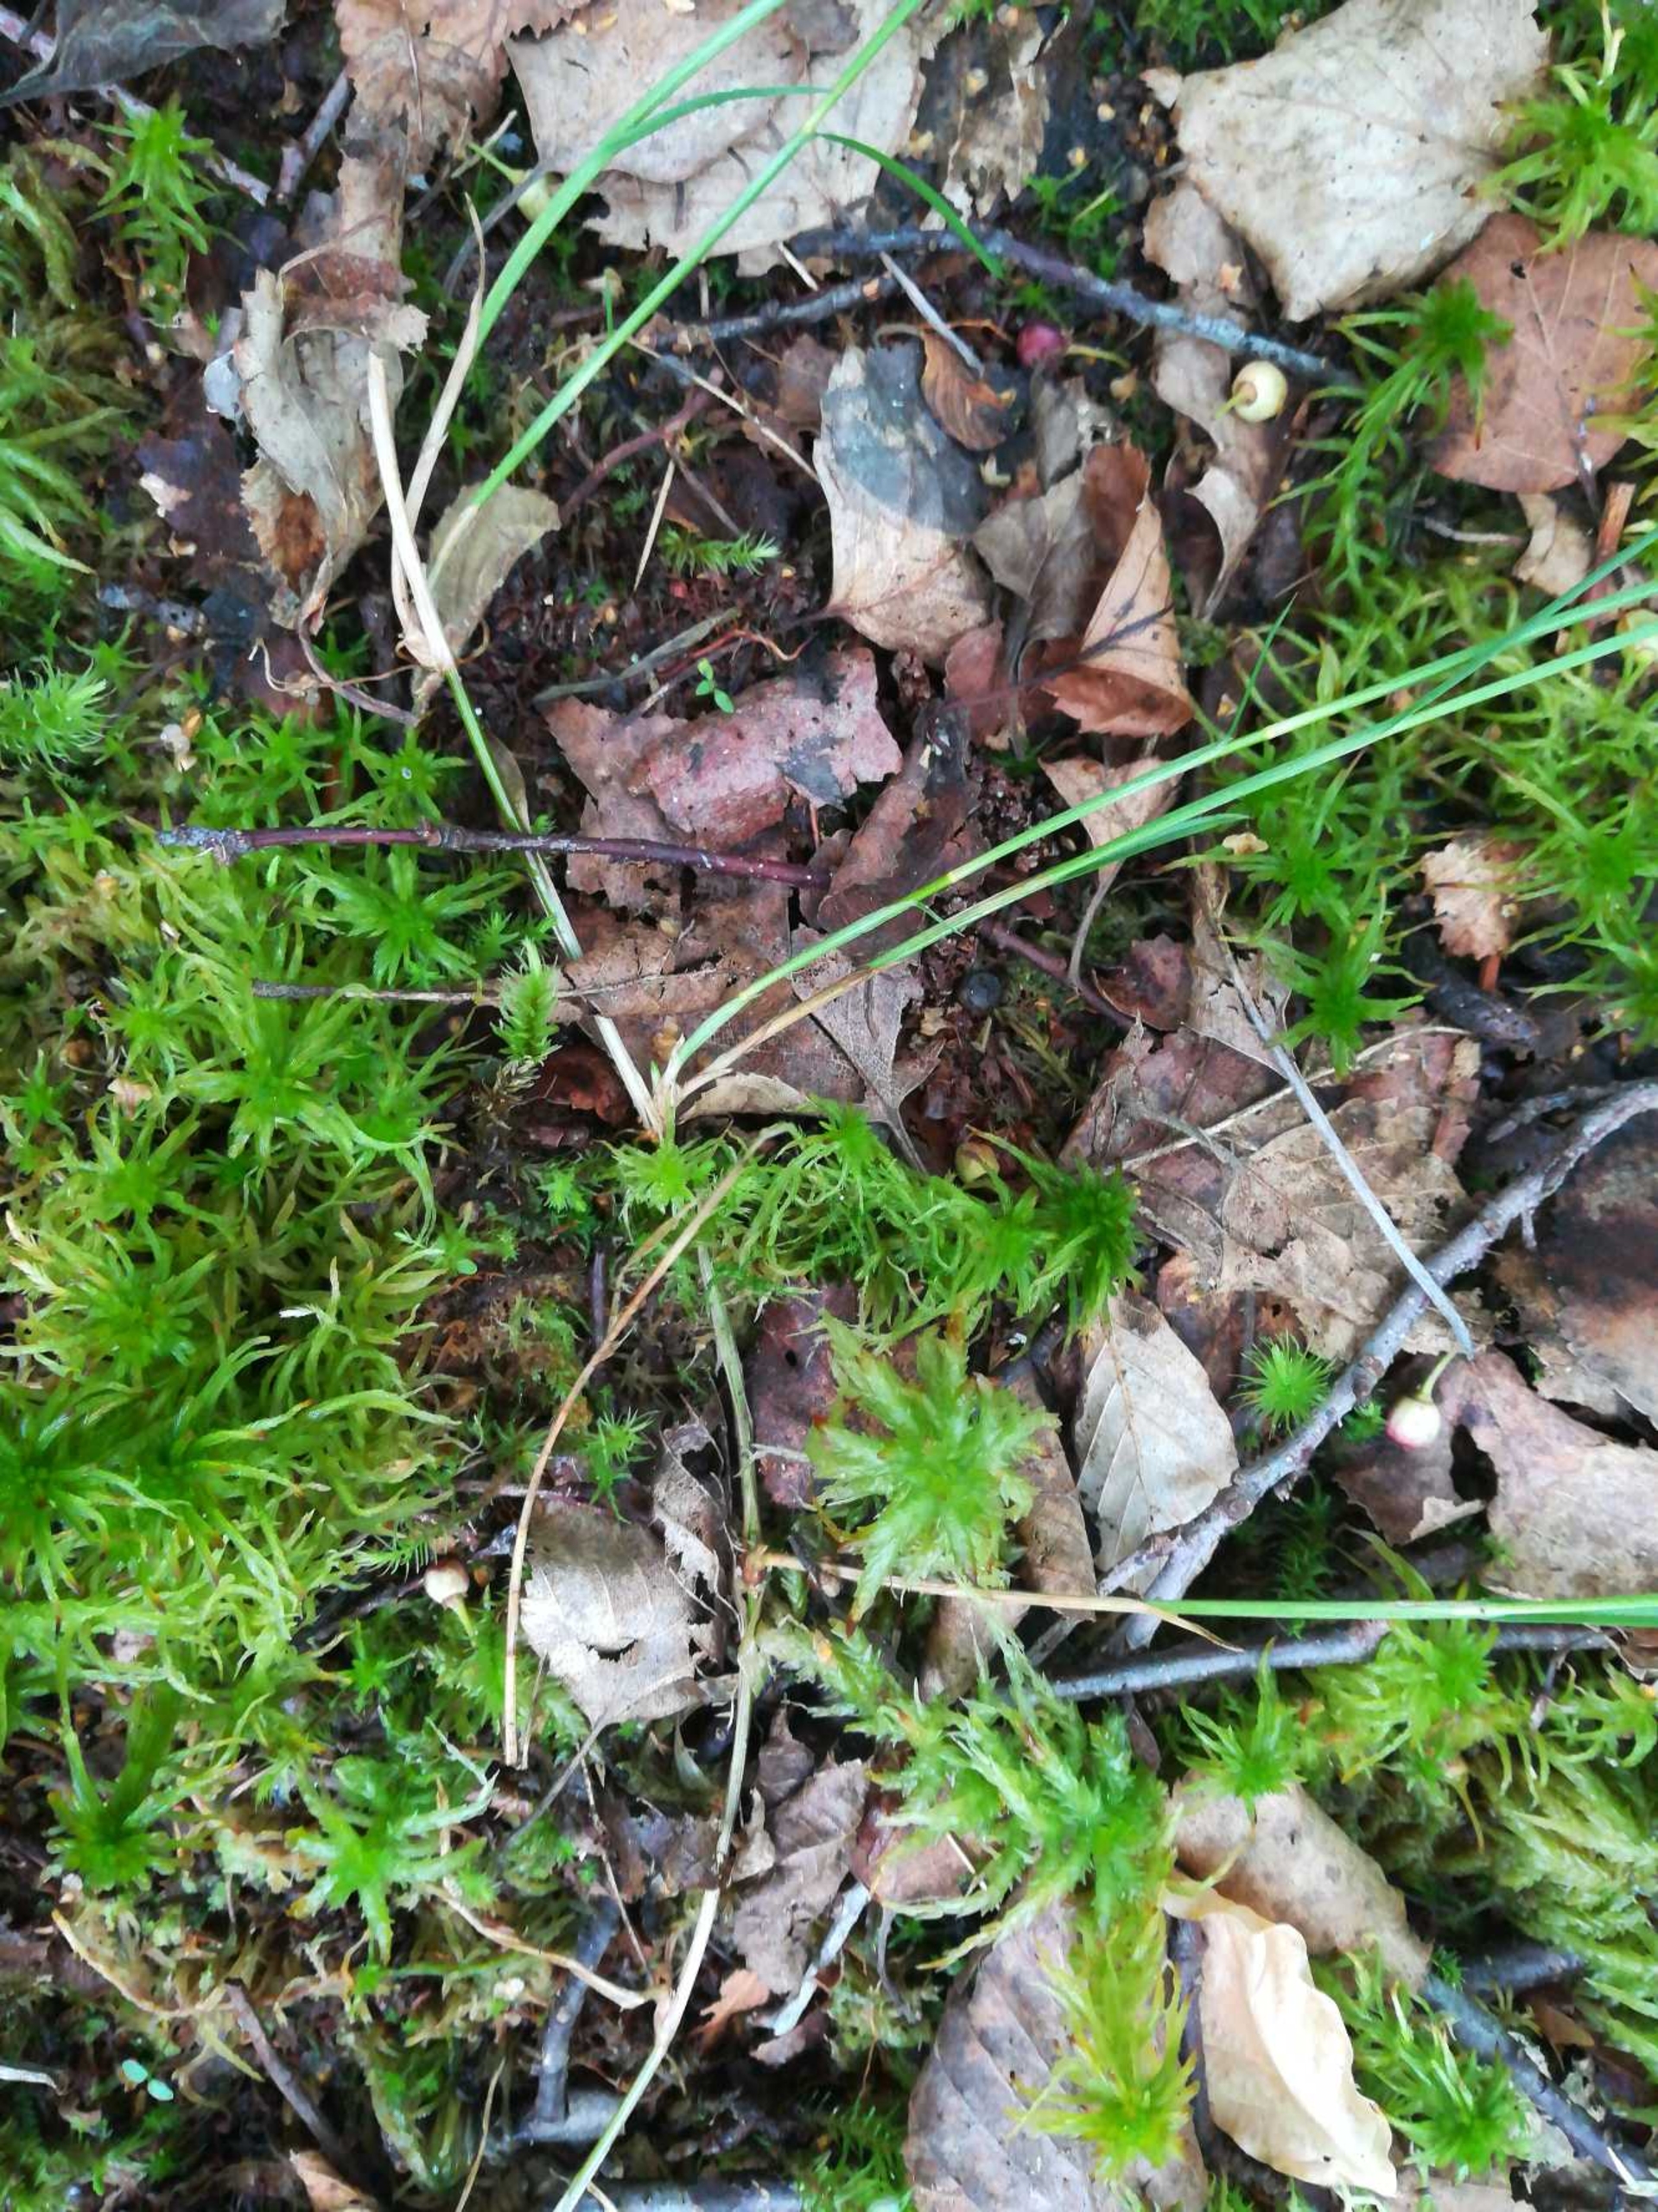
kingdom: Plantae
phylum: Tracheophyta
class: Liliopsida
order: Poales
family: Cyperaceae
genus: Carex
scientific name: Carex chordorrhiza
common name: Grenet star
